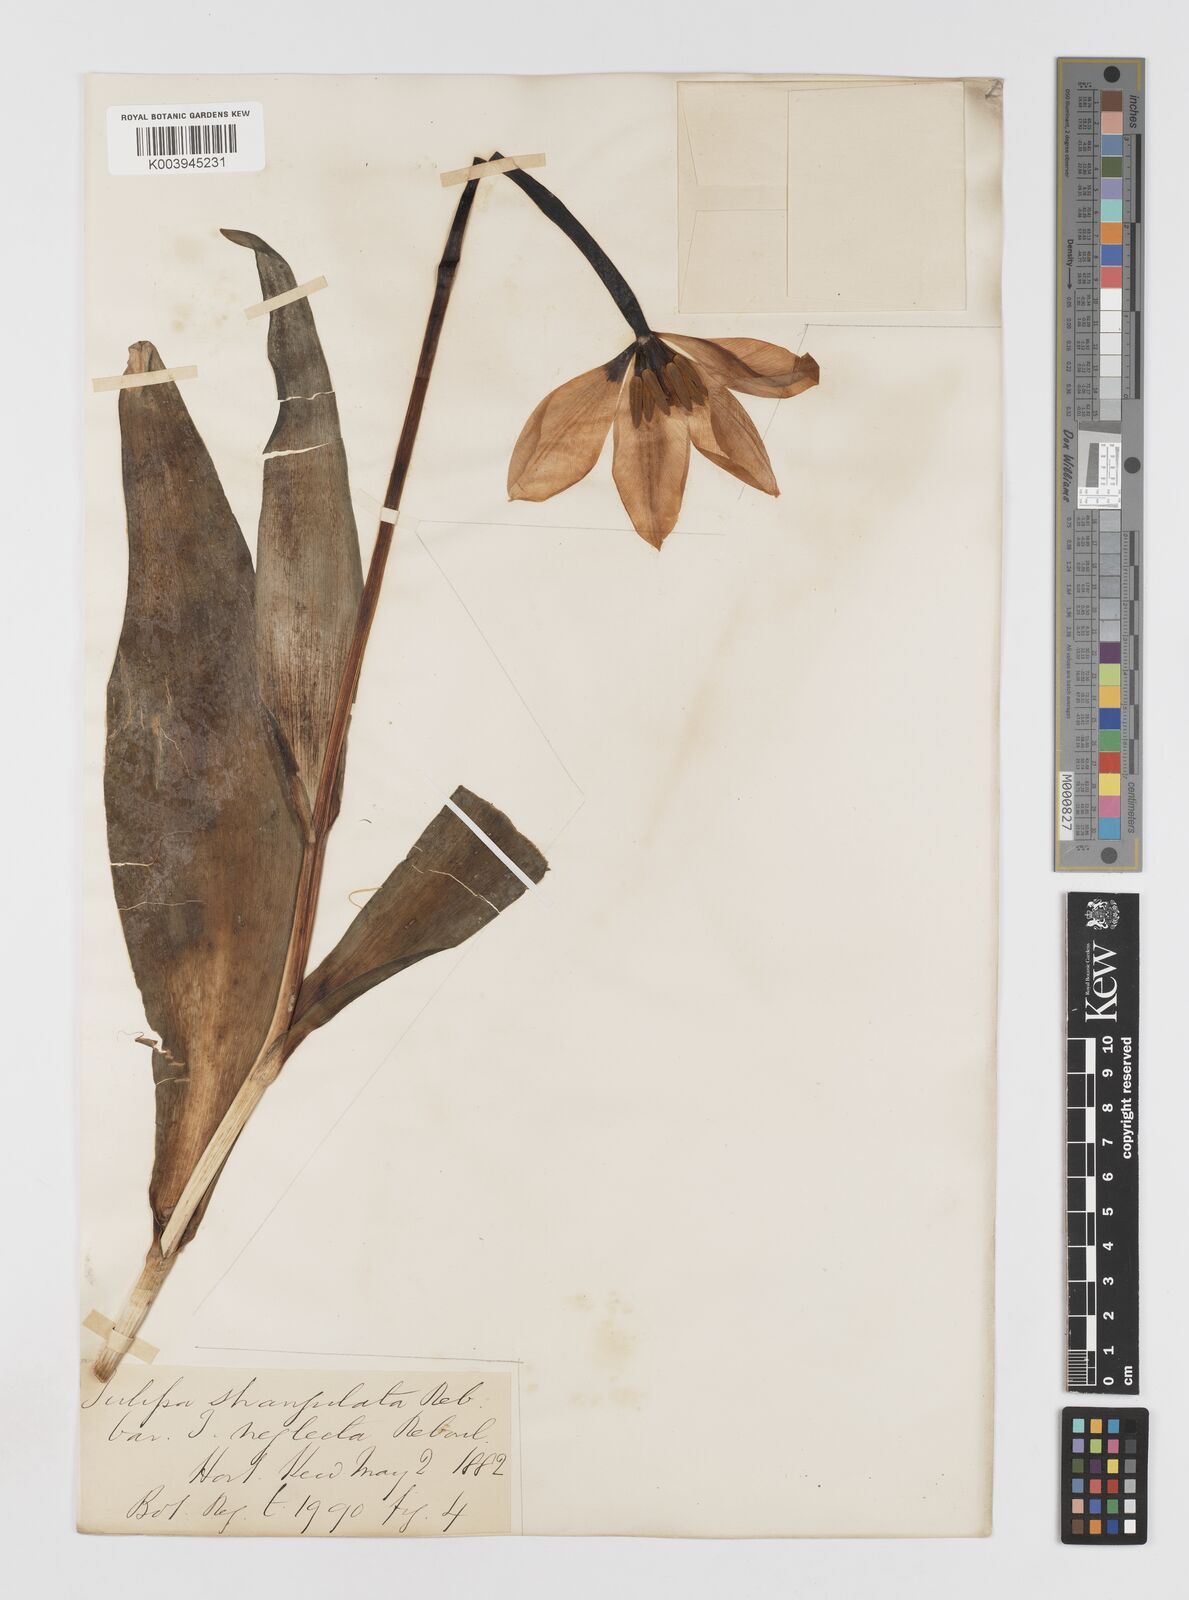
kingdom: Plantae
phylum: Tracheophyta
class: Liliopsida
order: Liliales
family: Liliaceae
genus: Tulipa
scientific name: Tulipa
